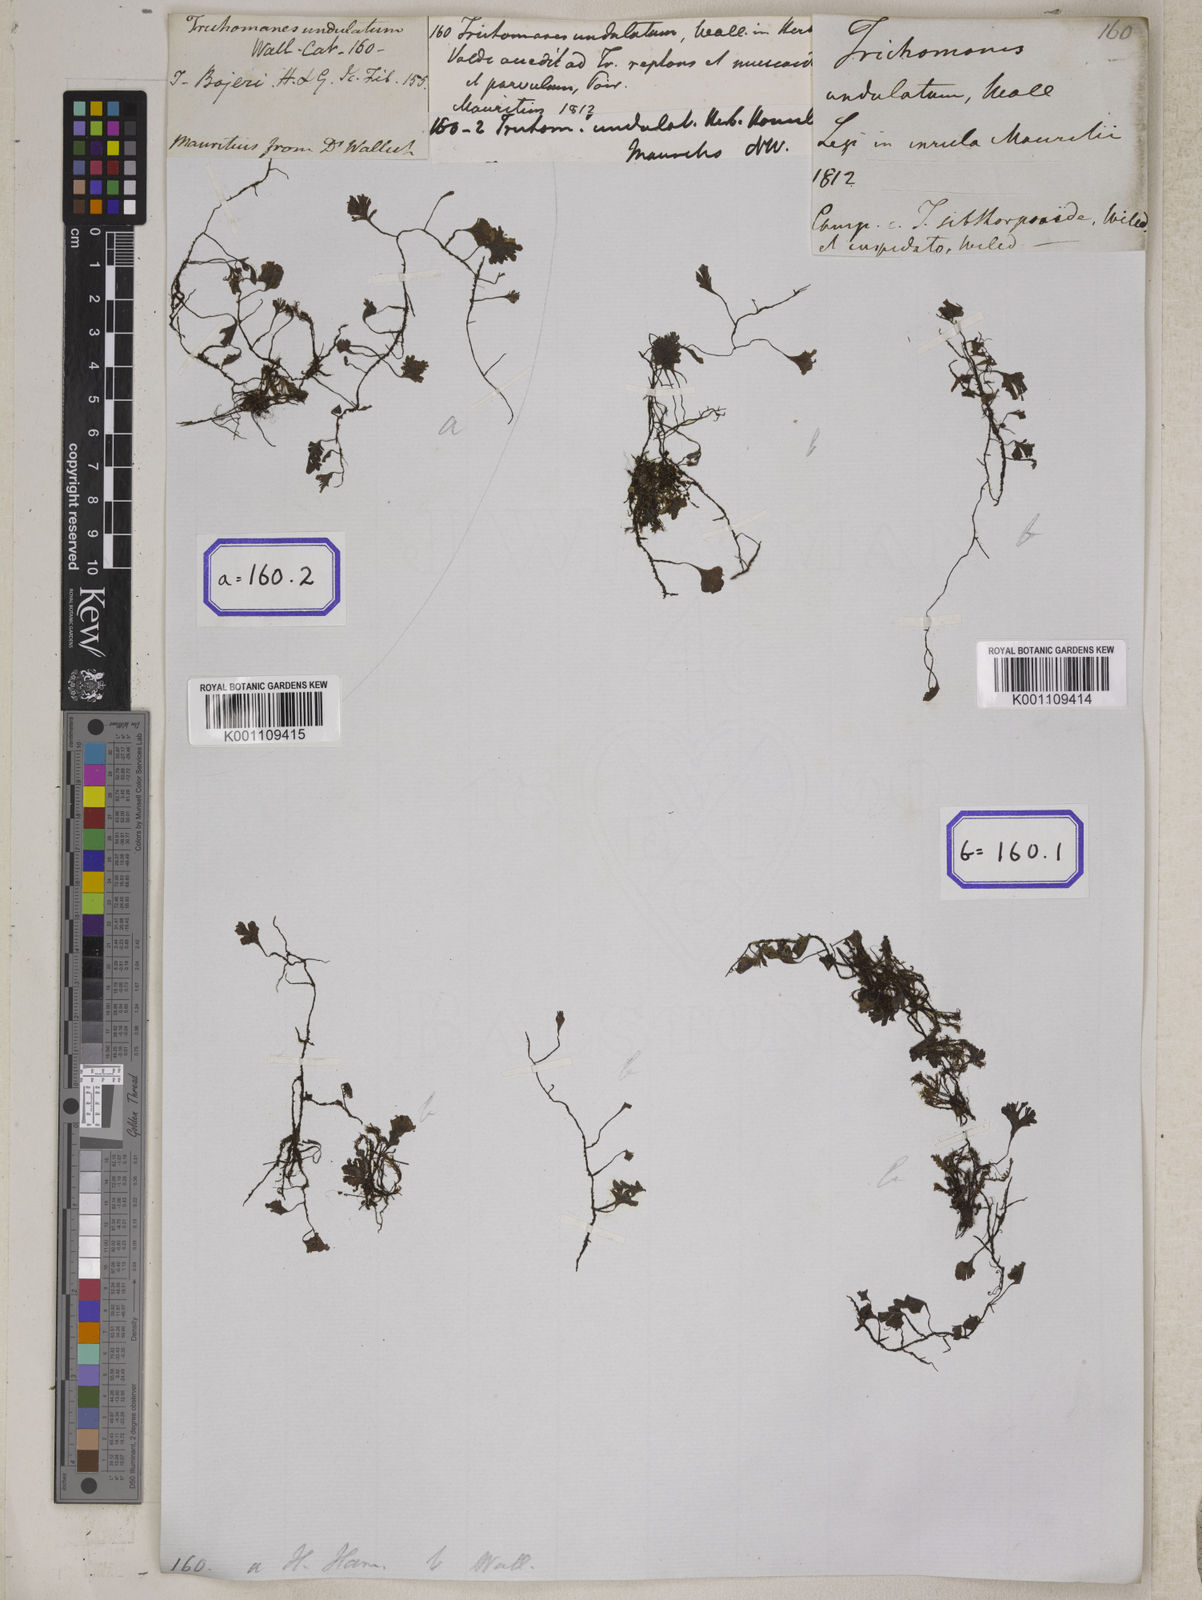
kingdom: Plantae
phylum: Tracheophyta
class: Polypodiopsida
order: Hymenophyllales
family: Hymenophyllaceae
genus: Didymoglossum
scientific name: Didymoglossum cuspidatum
